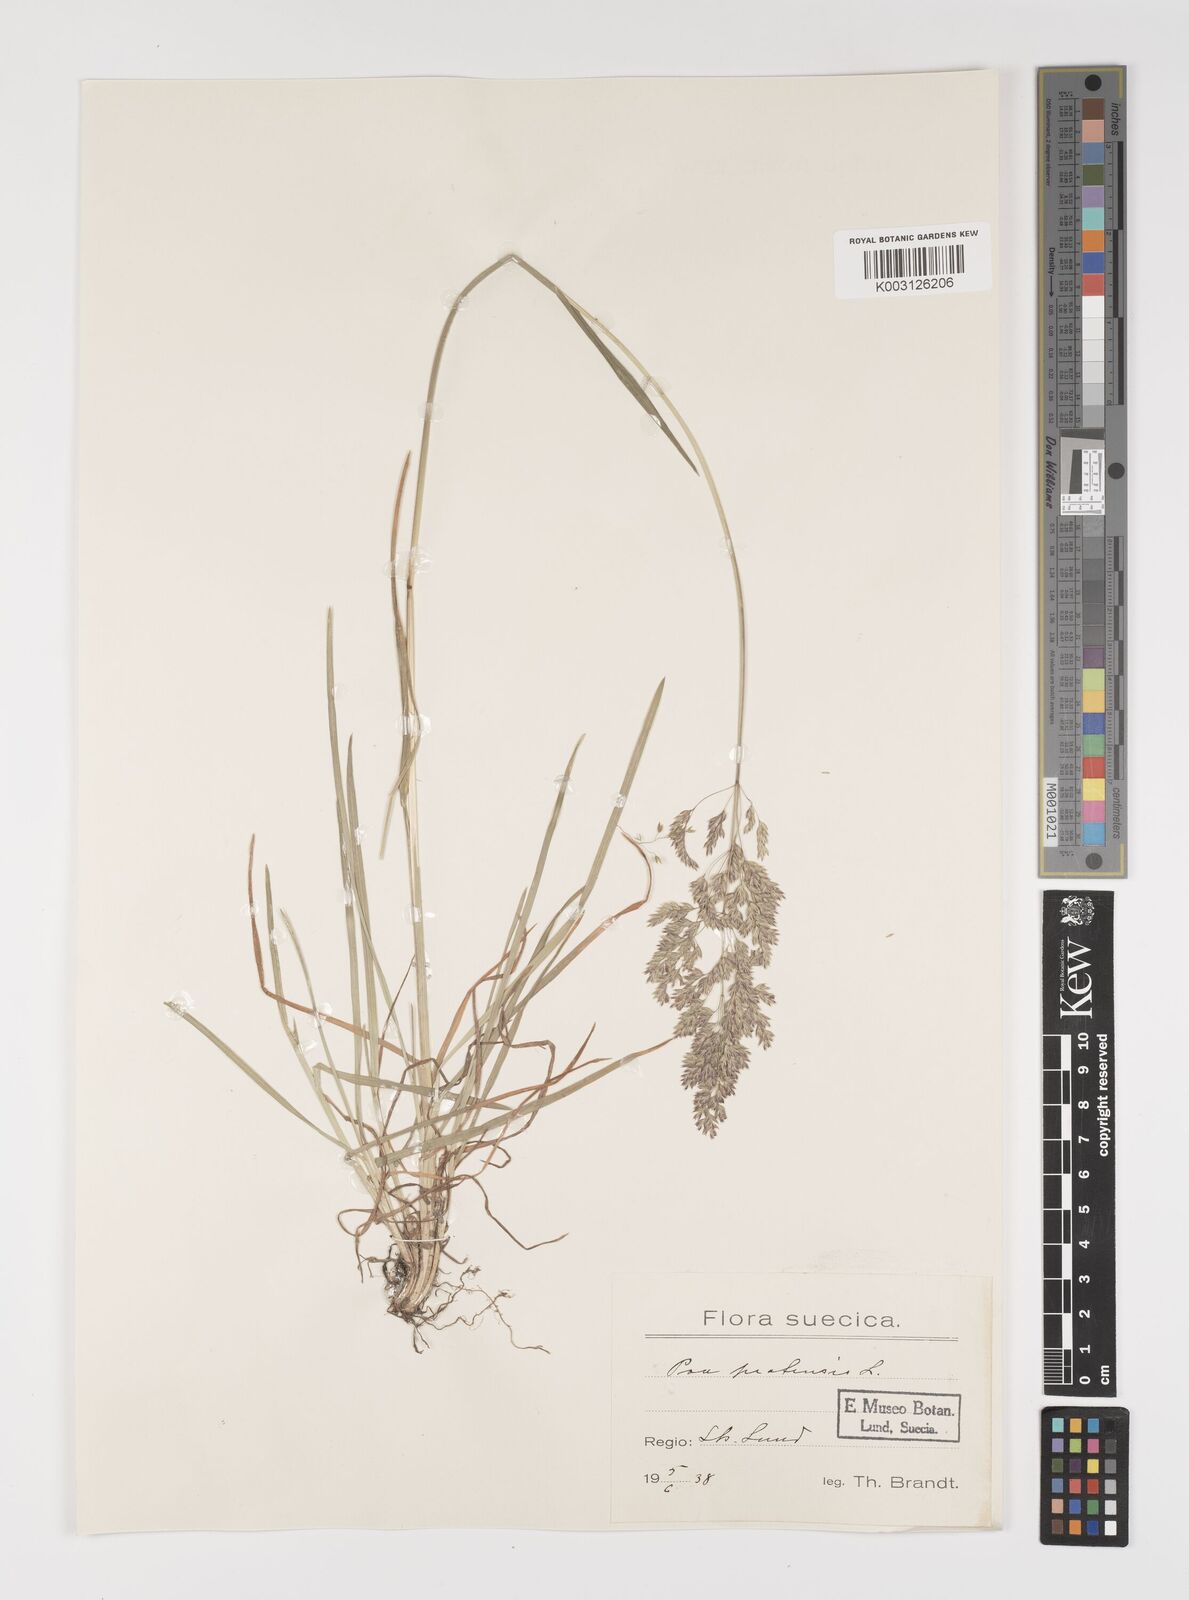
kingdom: Plantae
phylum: Tracheophyta
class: Liliopsida
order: Poales
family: Poaceae
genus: Poa
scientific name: Poa palustris
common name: Swamp meadow-grass
